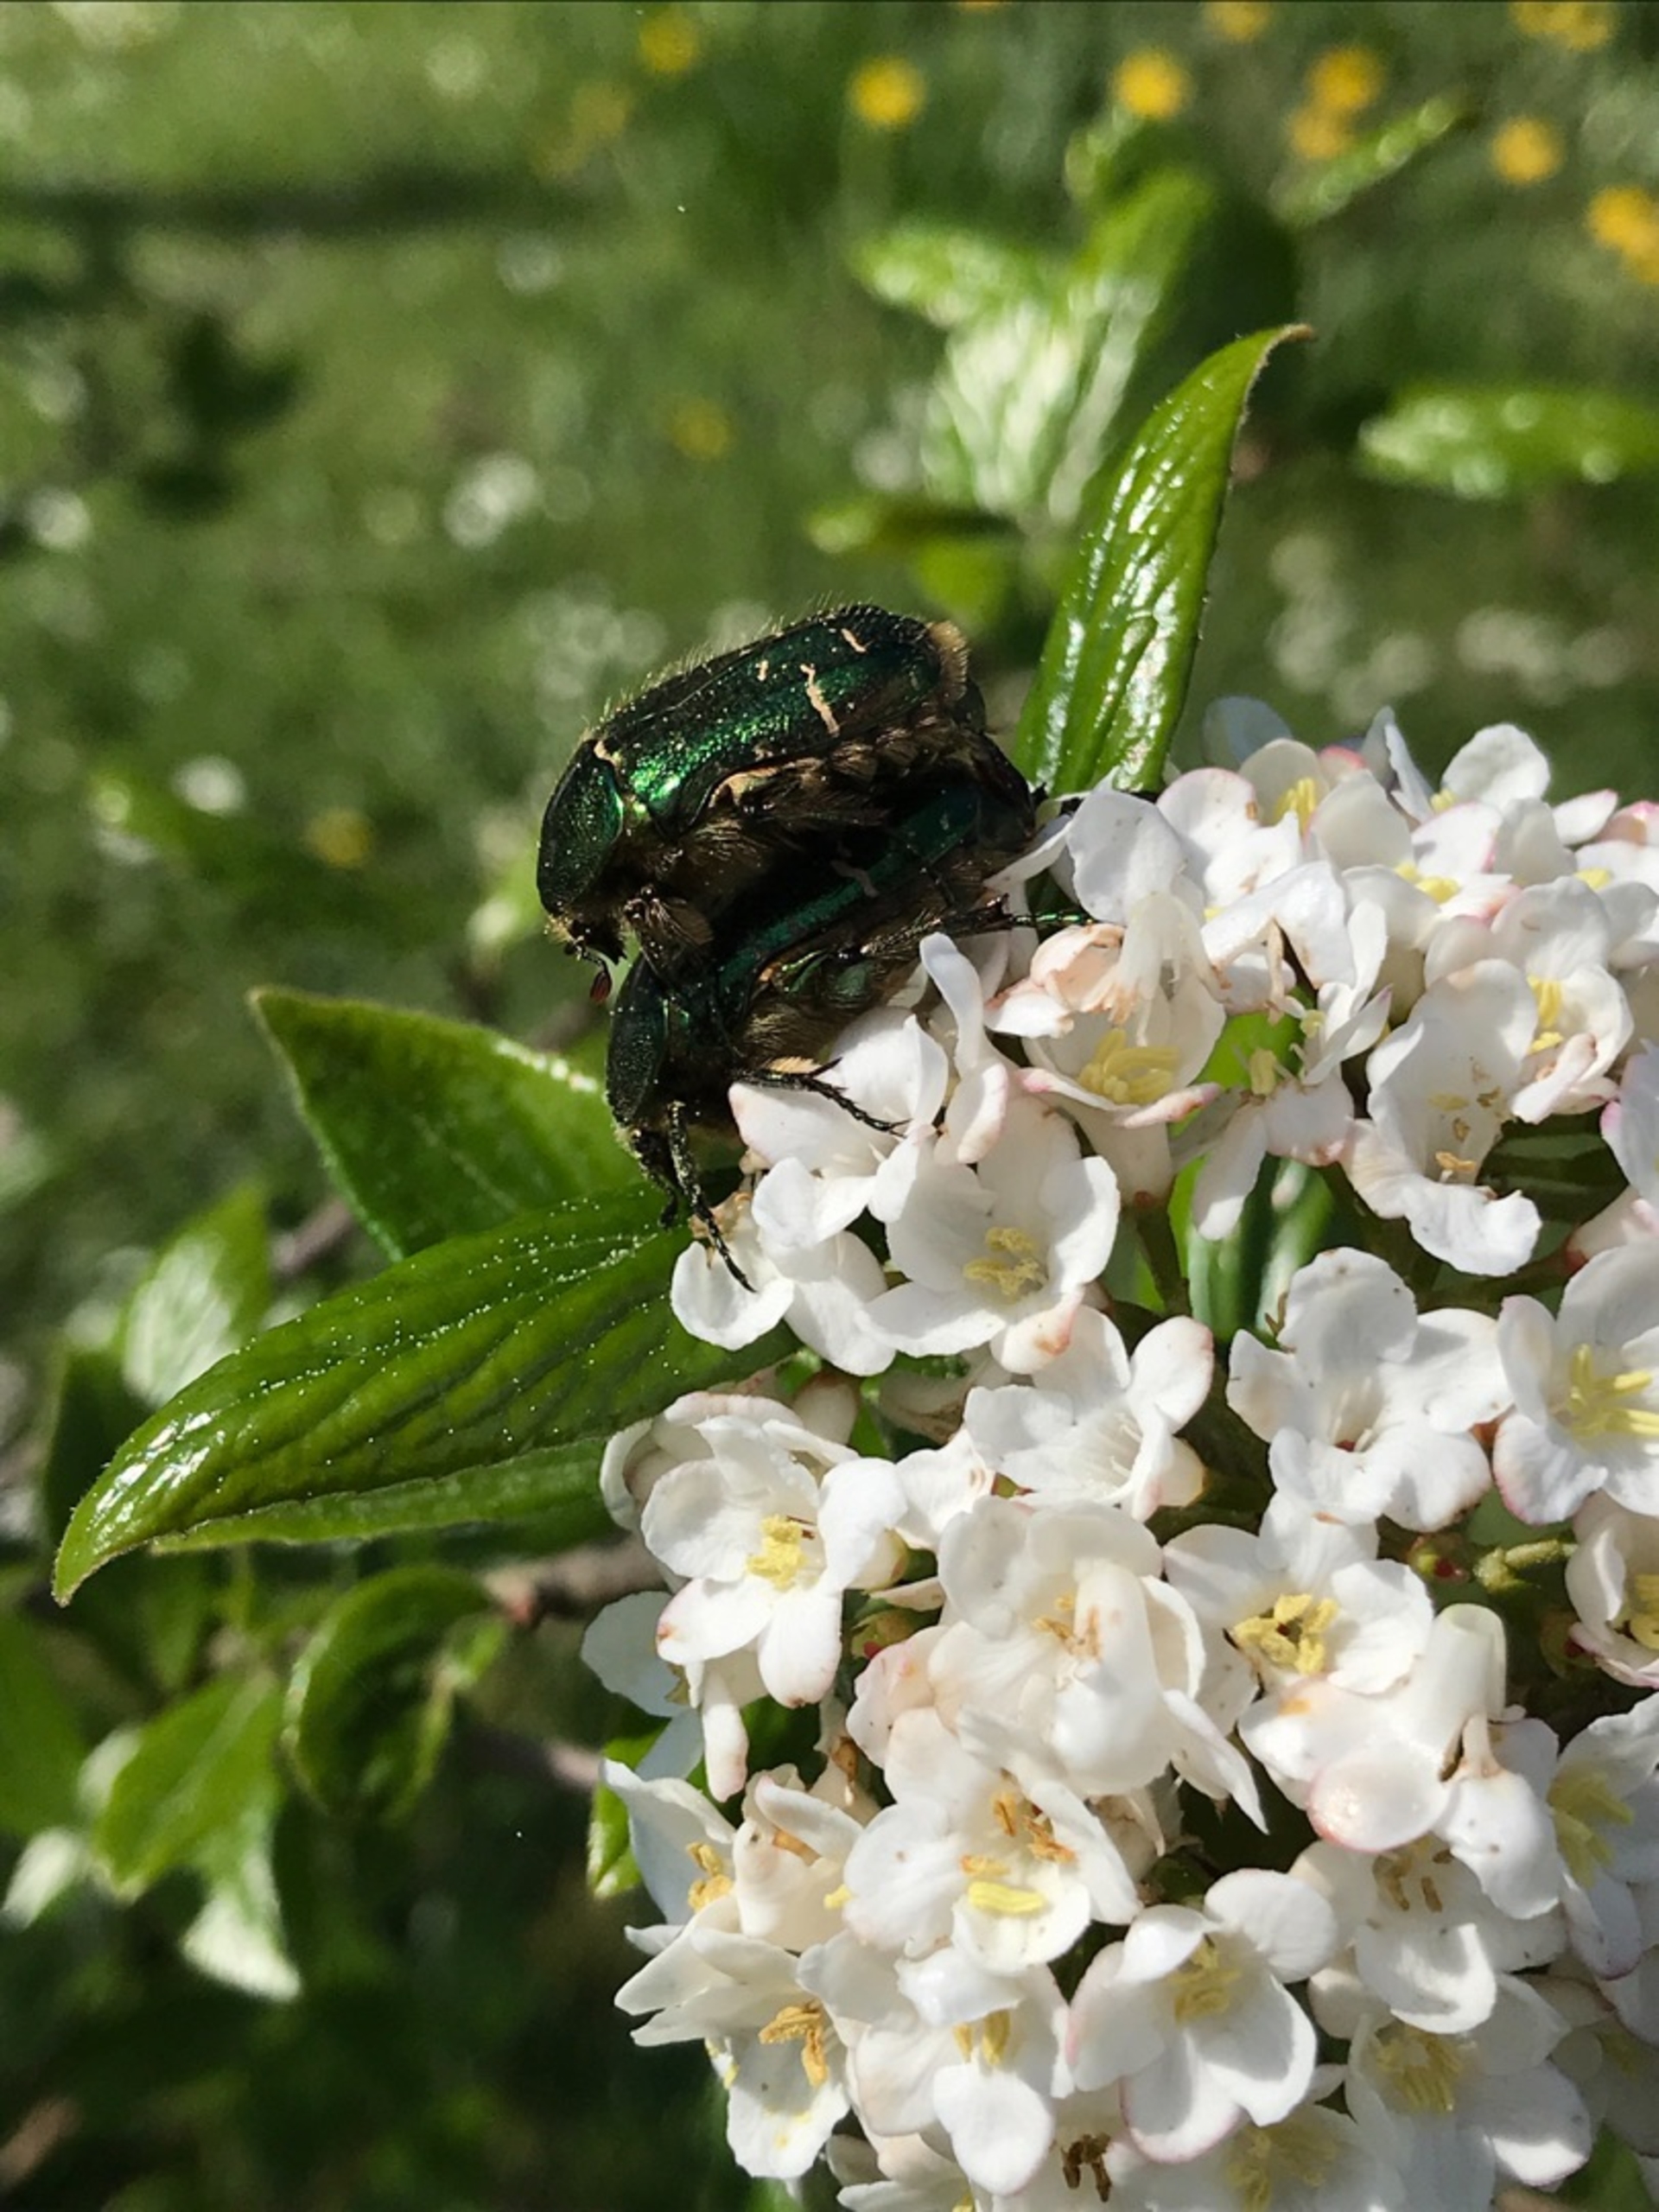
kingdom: Animalia
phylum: Arthropoda
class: Insecta
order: Coleoptera
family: Scarabaeidae
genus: Cetonia
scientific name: Cetonia aurata
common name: Grøn guldbasse
